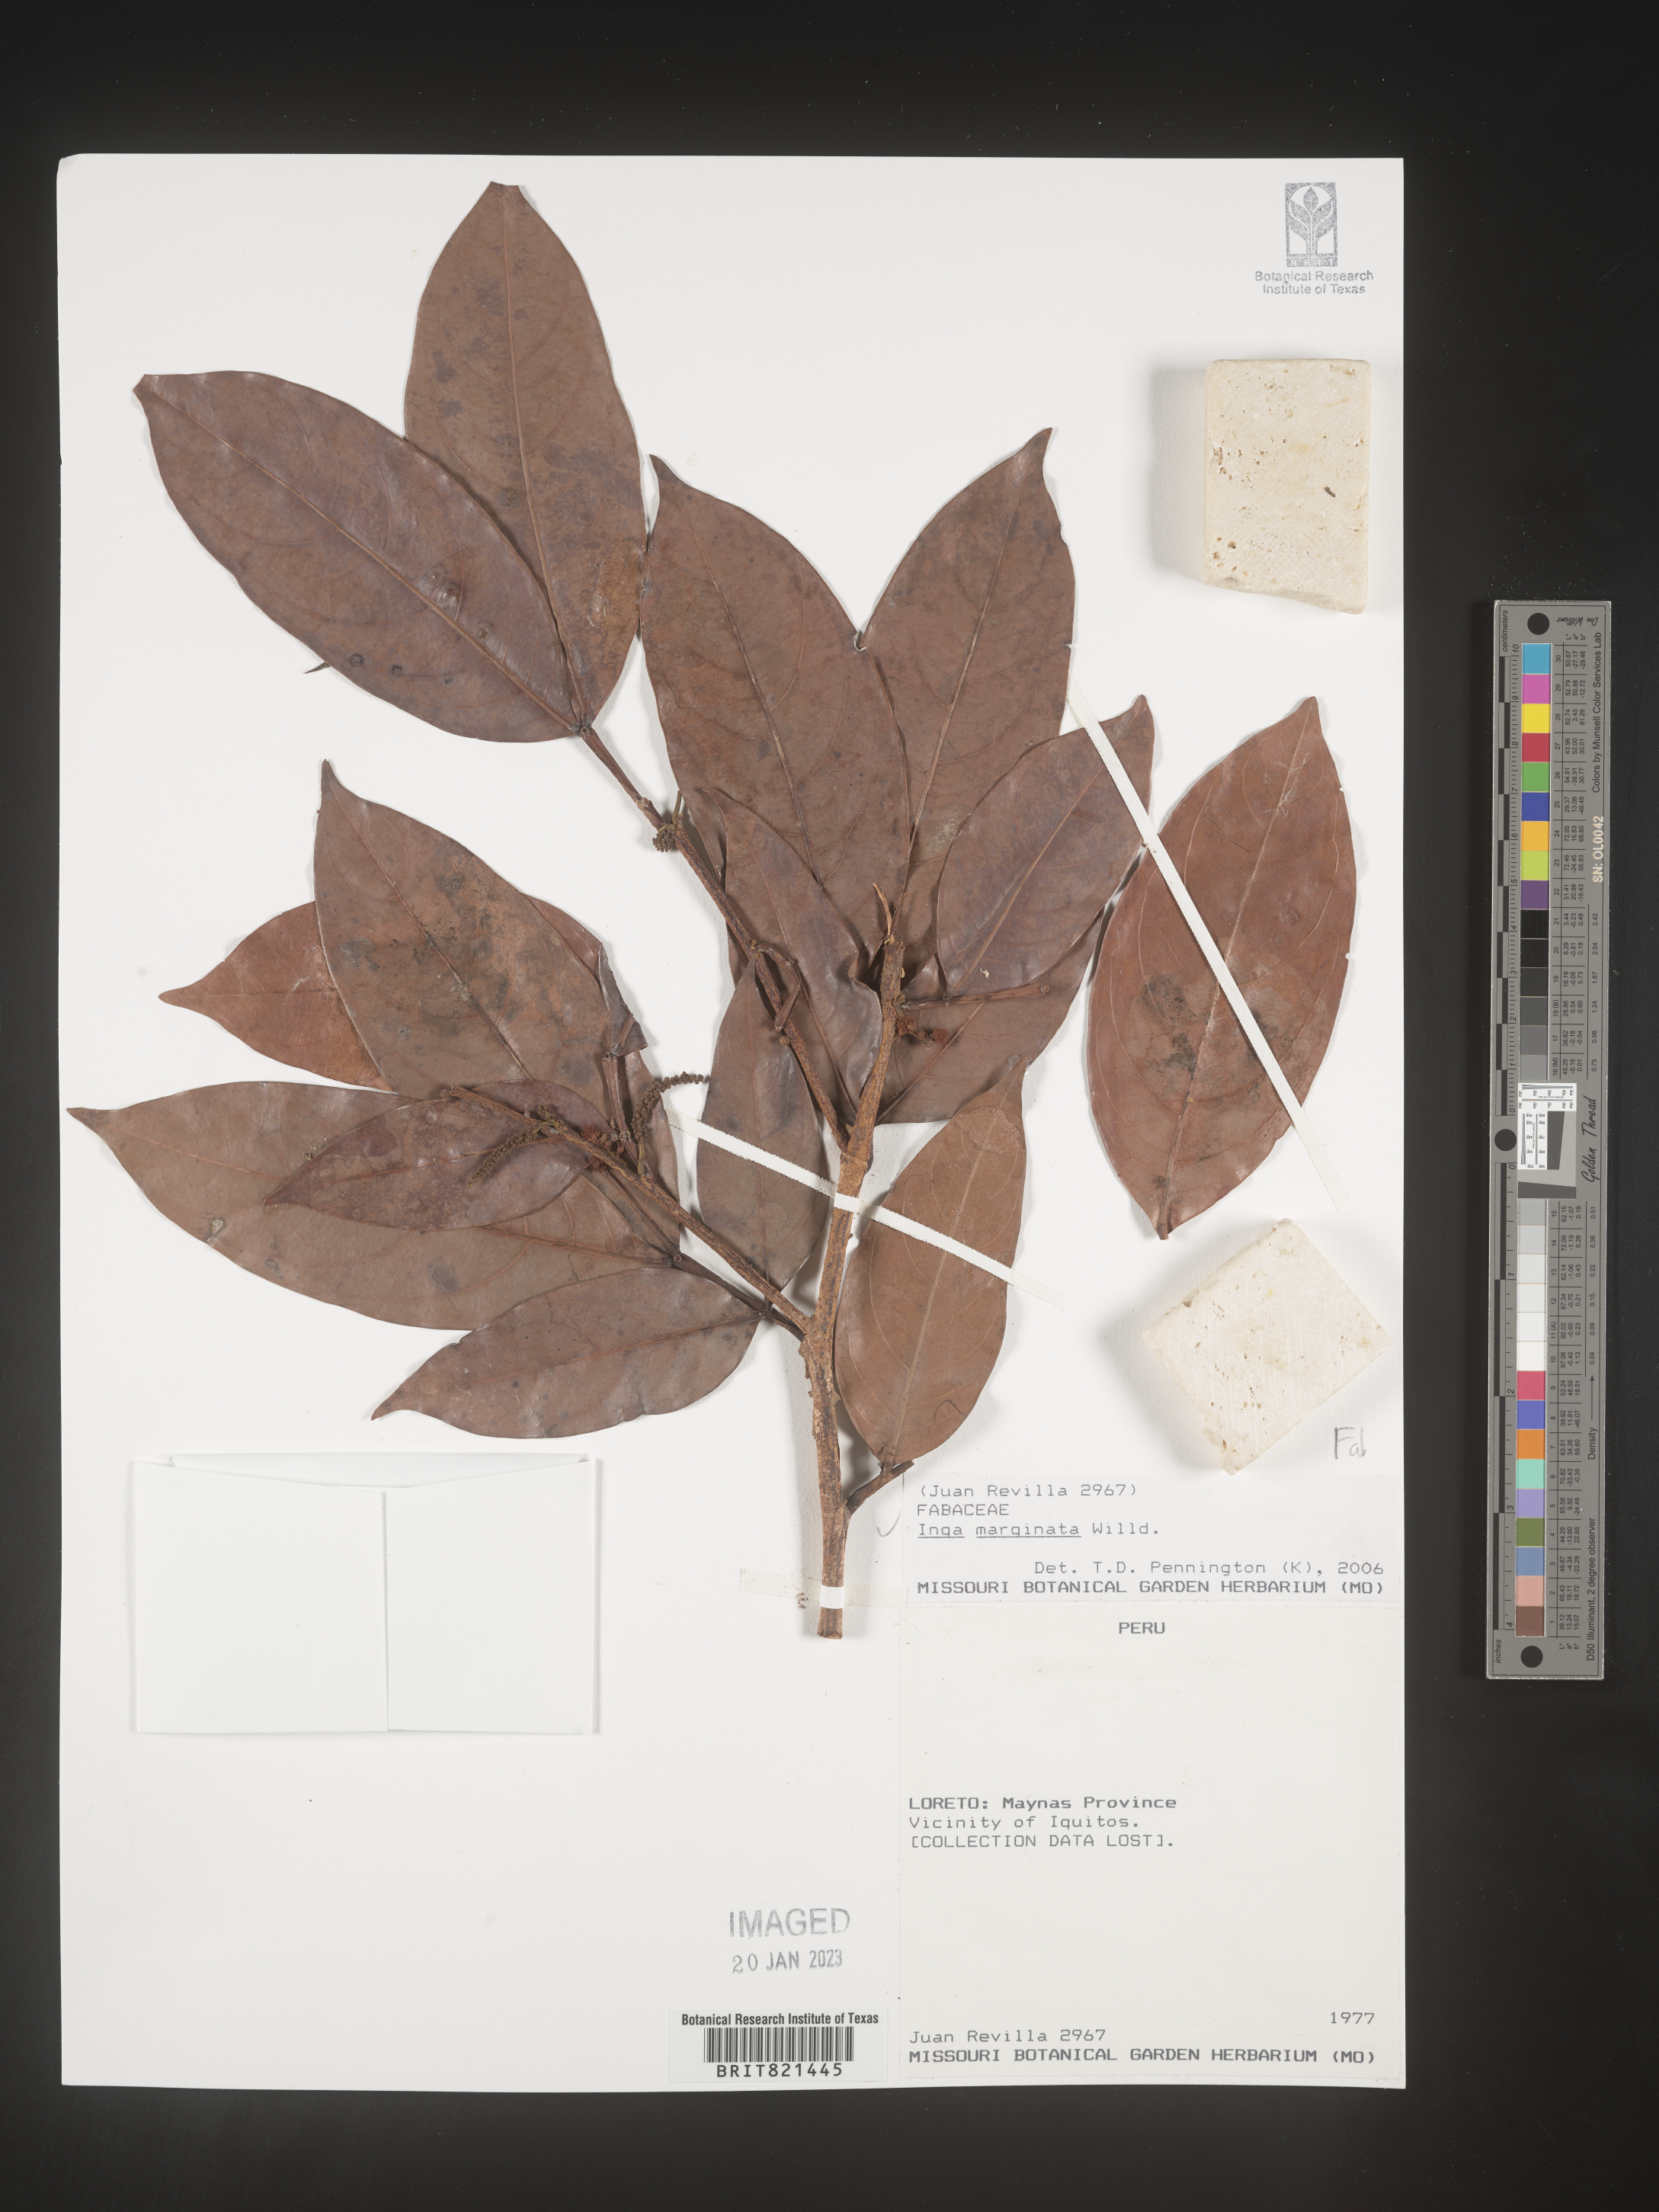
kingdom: Plantae
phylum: Tracheophyta
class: Magnoliopsida
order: Fabales
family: Fabaceae
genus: Inga
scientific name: Inga
